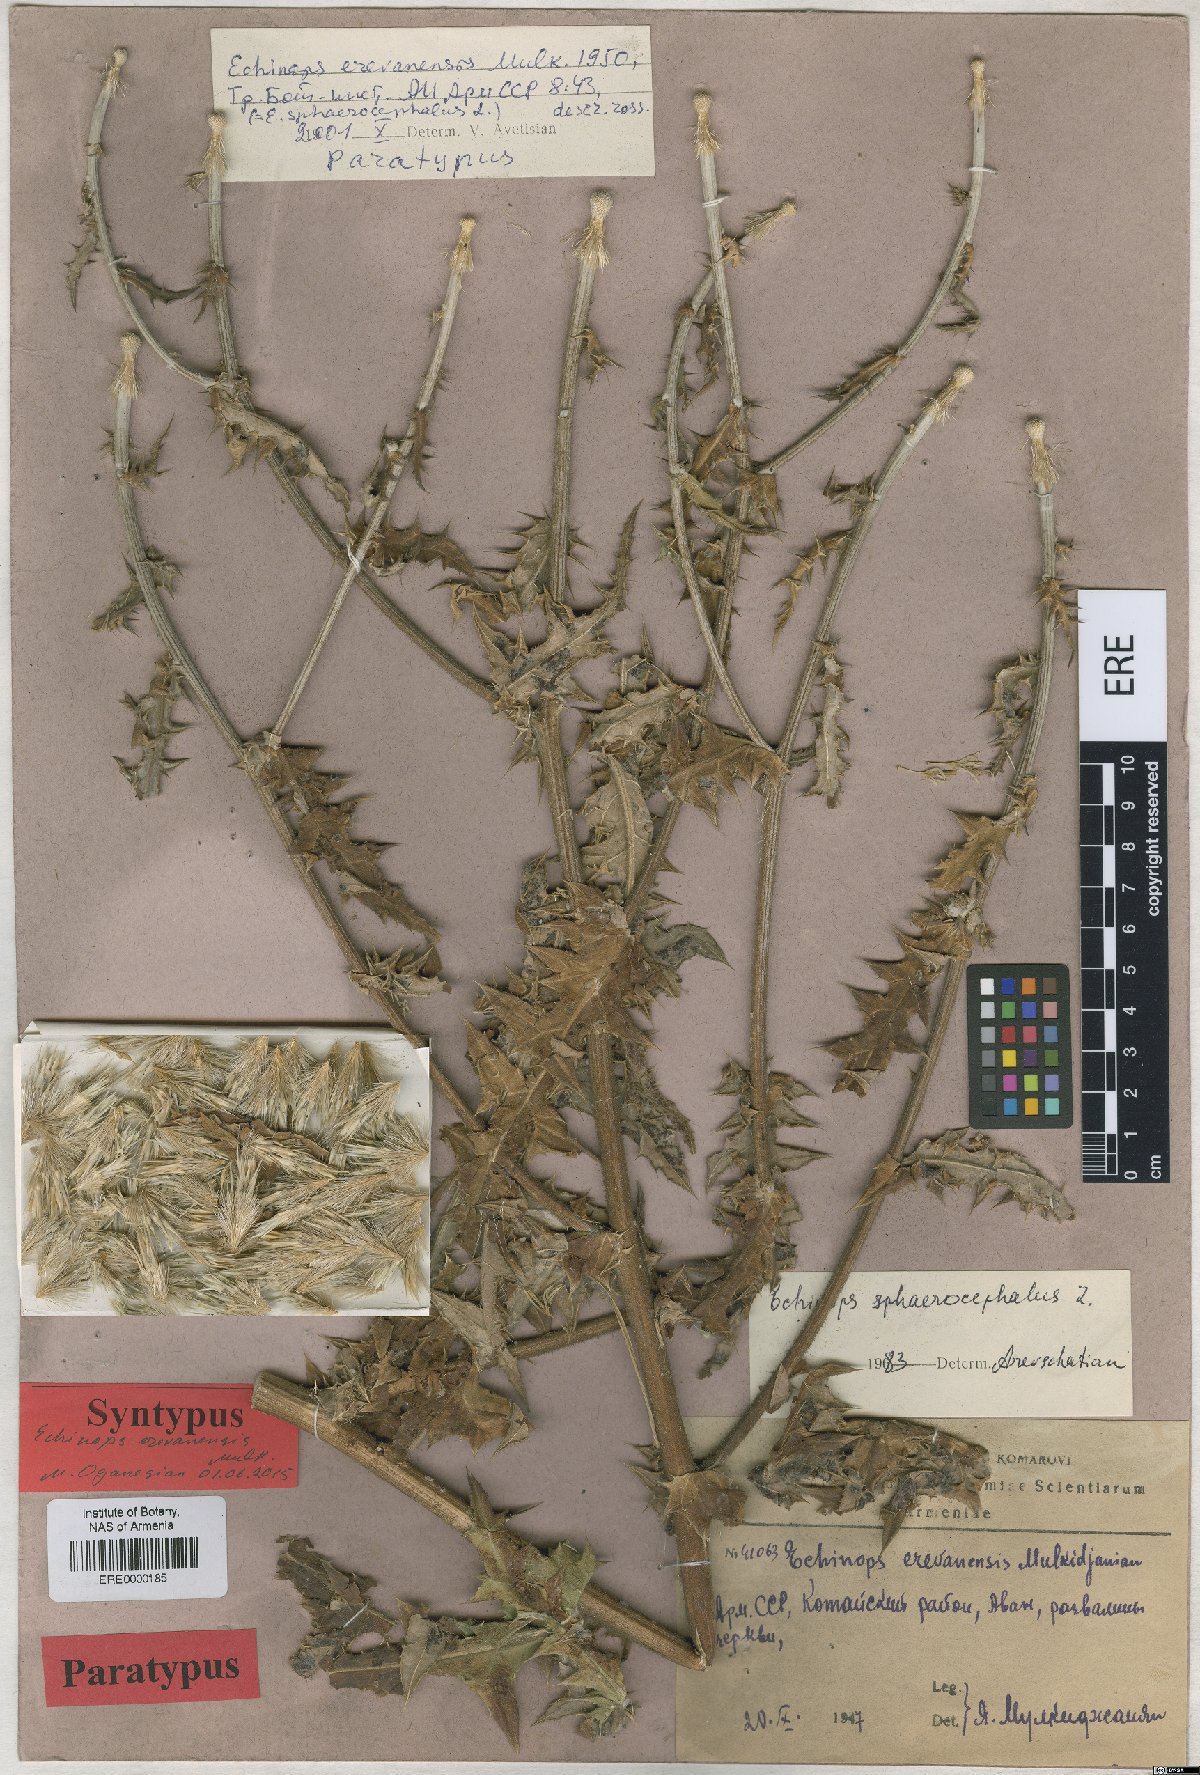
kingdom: Plantae
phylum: Tracheophyta
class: Magnoliopsida
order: Asterales
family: Asteraceae
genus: Echinops
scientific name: Echinops sphaerocephalus
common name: Glandular globe-thistle
